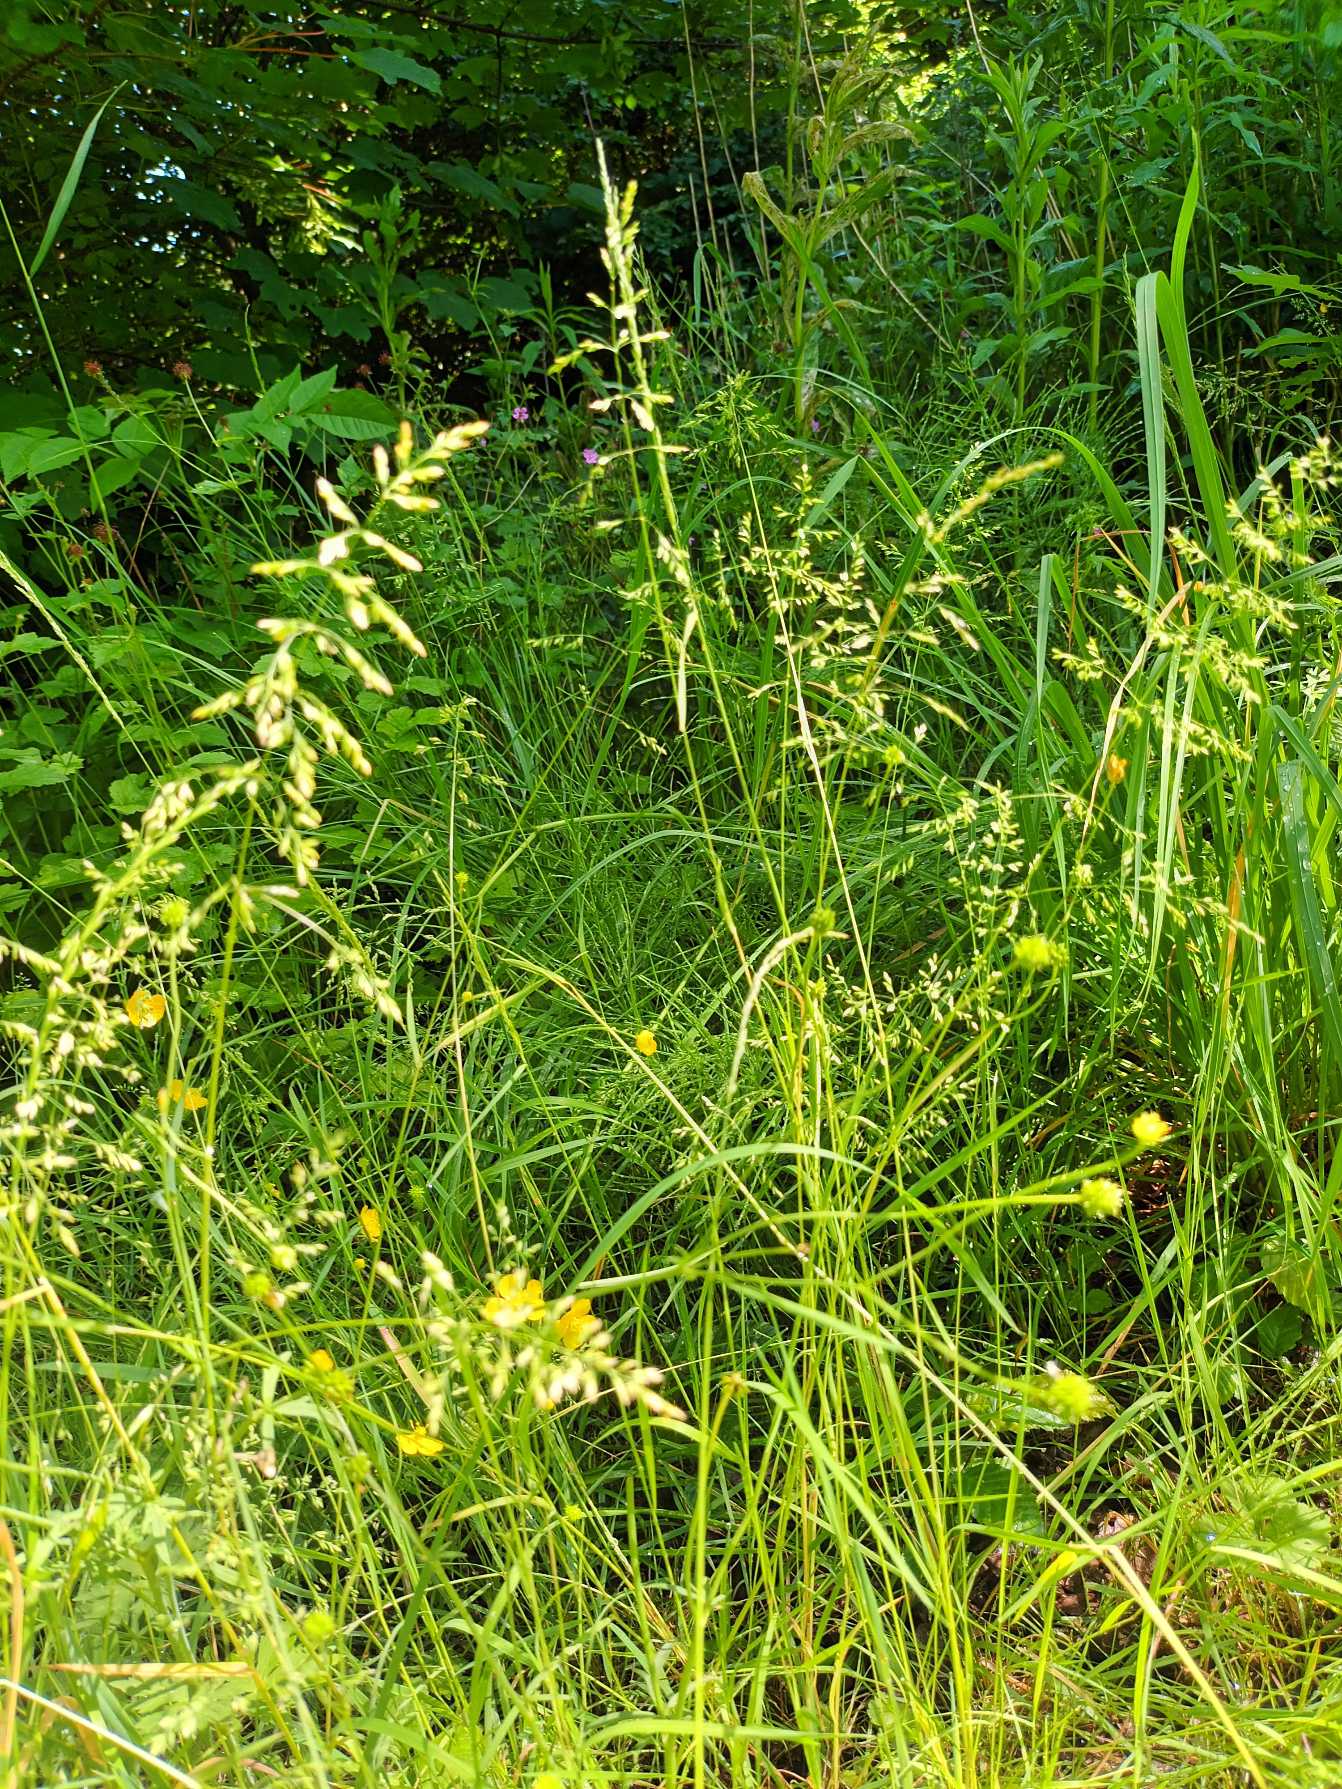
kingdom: Plantae
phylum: Tracheophyta
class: Liliopsida
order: Poales
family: Poaceae
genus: Poa
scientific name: Poa trivialis
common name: Almindelig rapgræs
